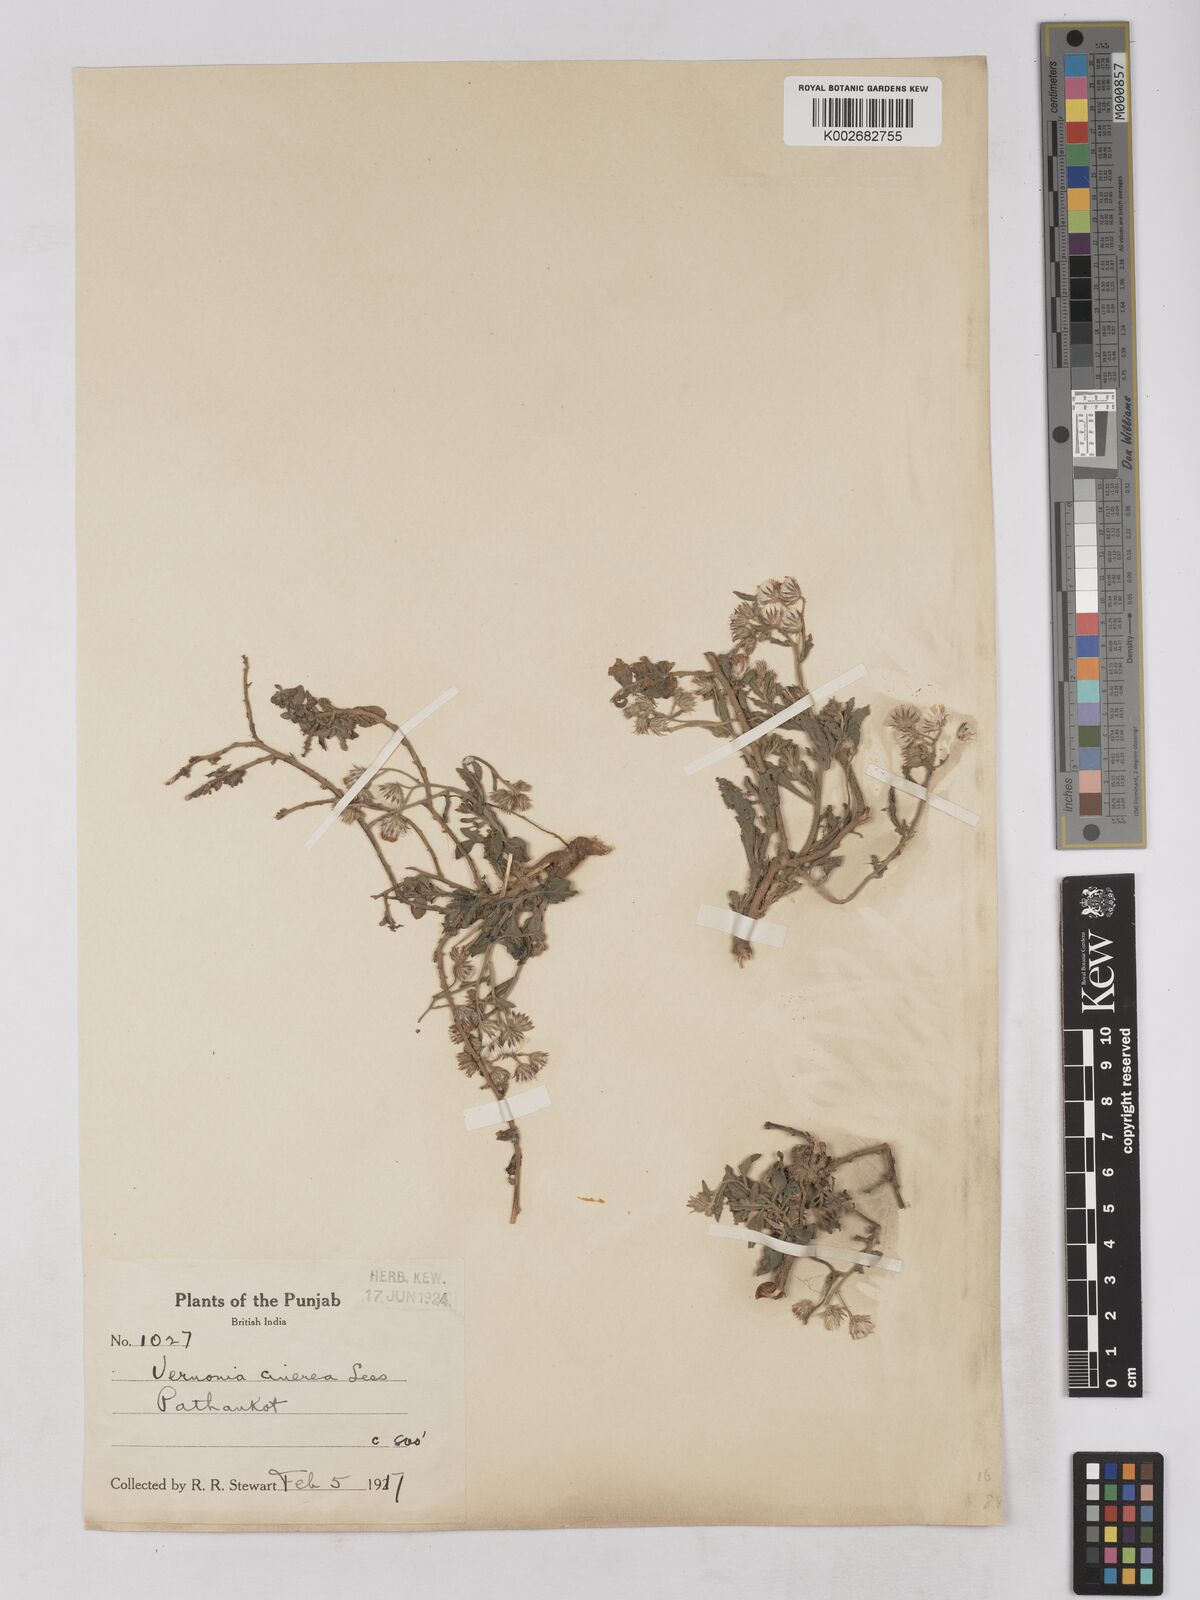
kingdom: Plantae
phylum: Tracheophyta
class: Magnoliopsida
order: Asterales
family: Asteraceae
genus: Cyanthillium
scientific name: Cyanthillium cinereum
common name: Little ironweed
